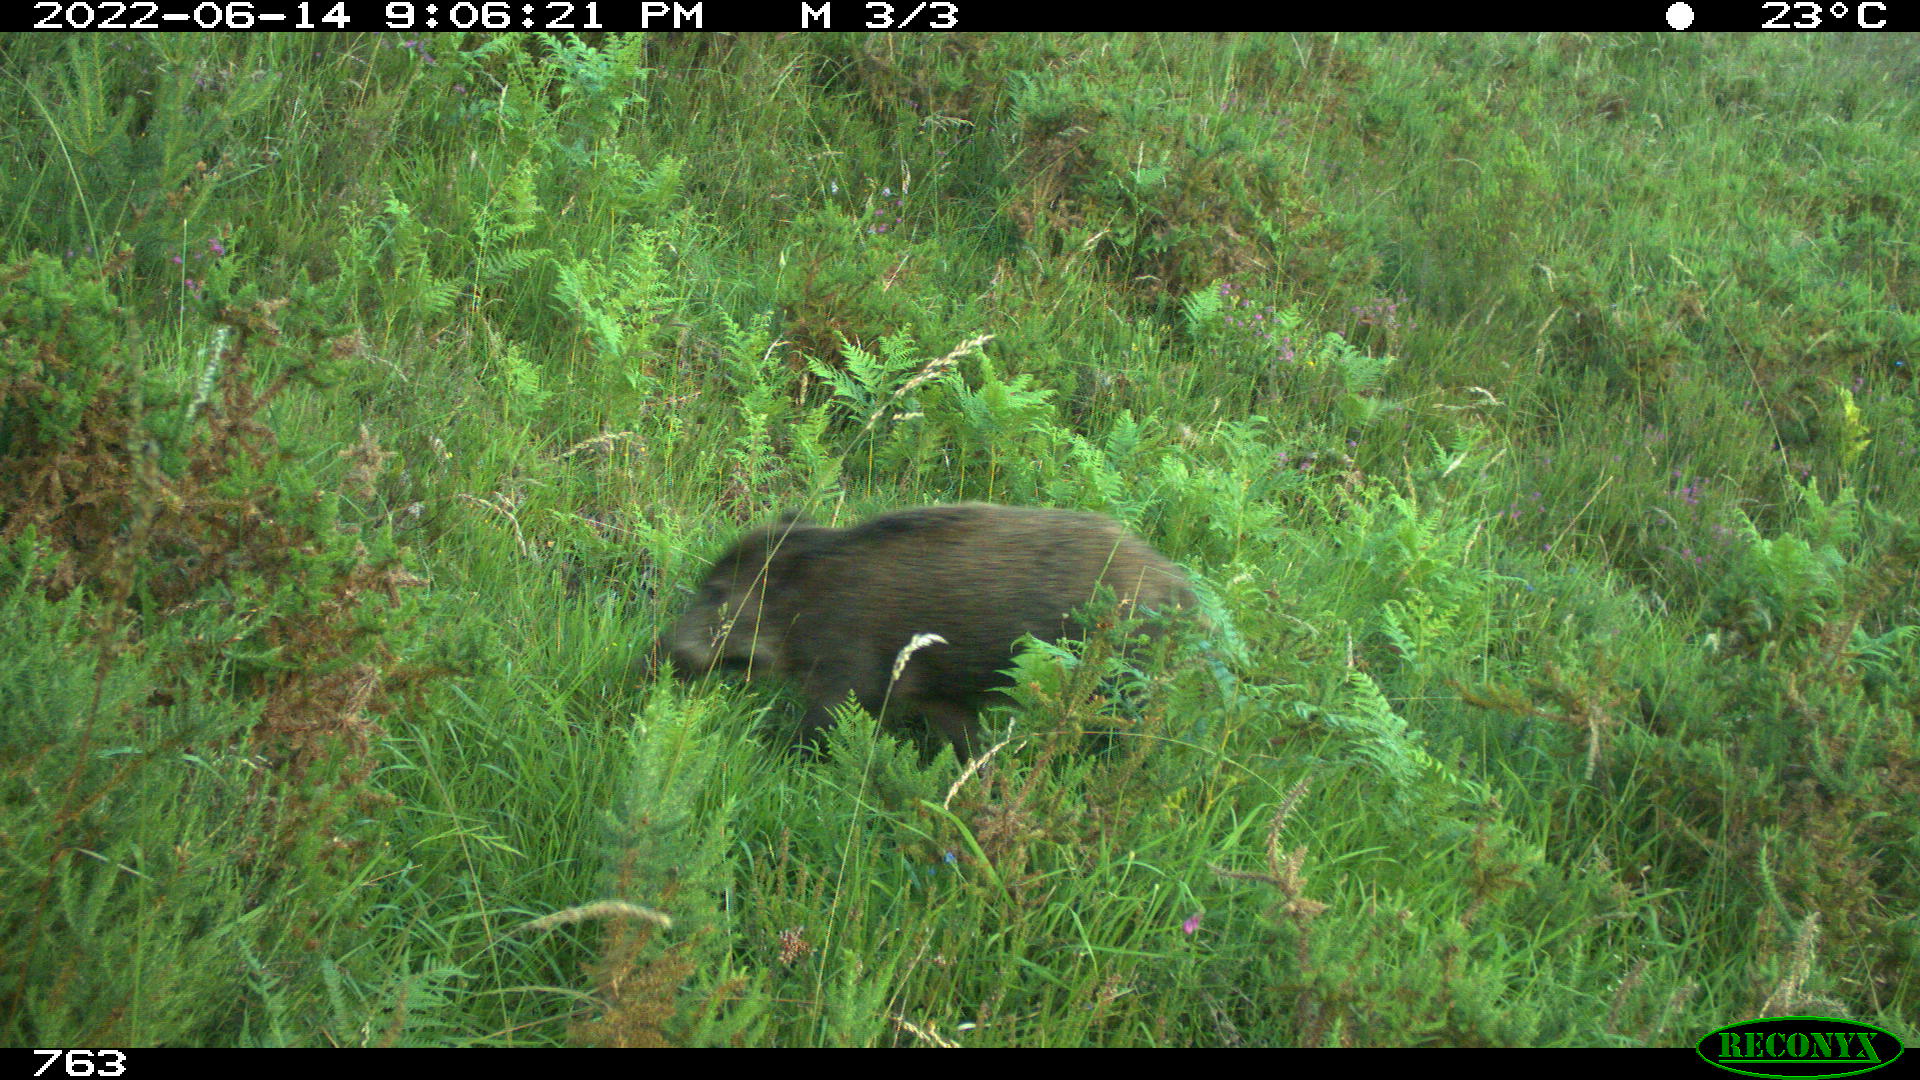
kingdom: Animalia
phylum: Chordata
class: Mammalia
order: Artiodactyla
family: Suidae
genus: Sus
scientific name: Sus scrofa
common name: Wild boar
